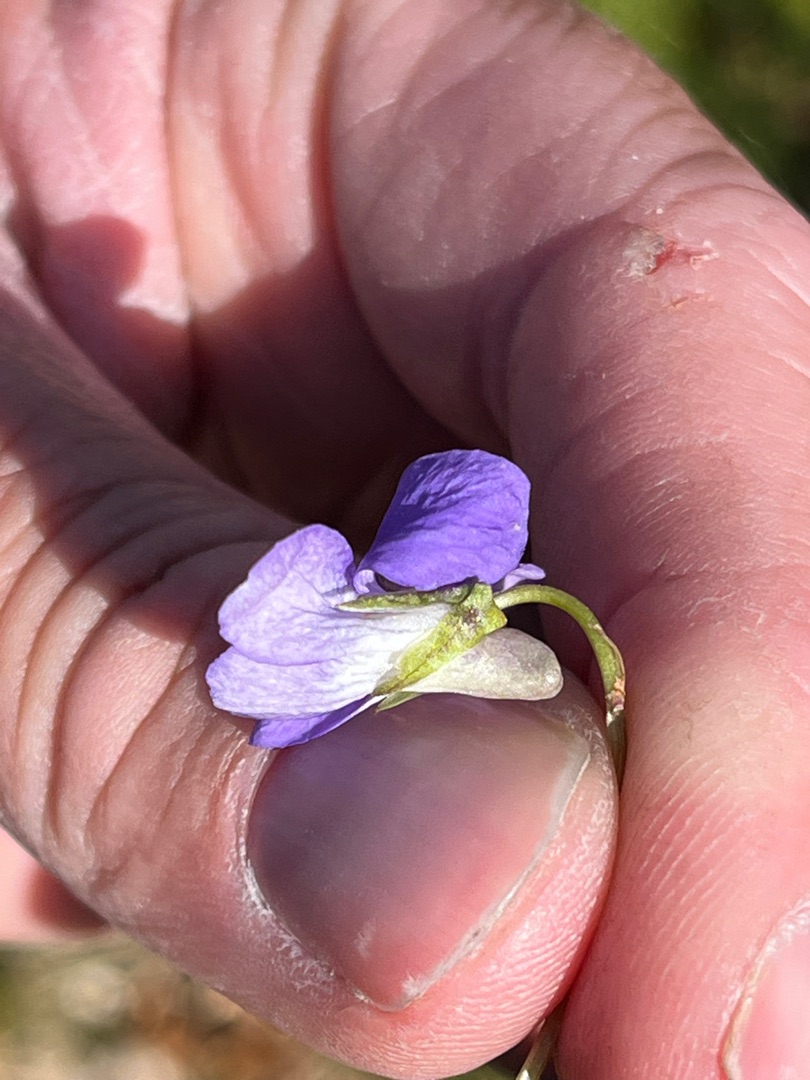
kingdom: Plantae
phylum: Tracheophyta
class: Magnoliopsida
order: Malpighiales
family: Violaceae
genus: Viola
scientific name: Viola riviniana
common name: Krat-viol
